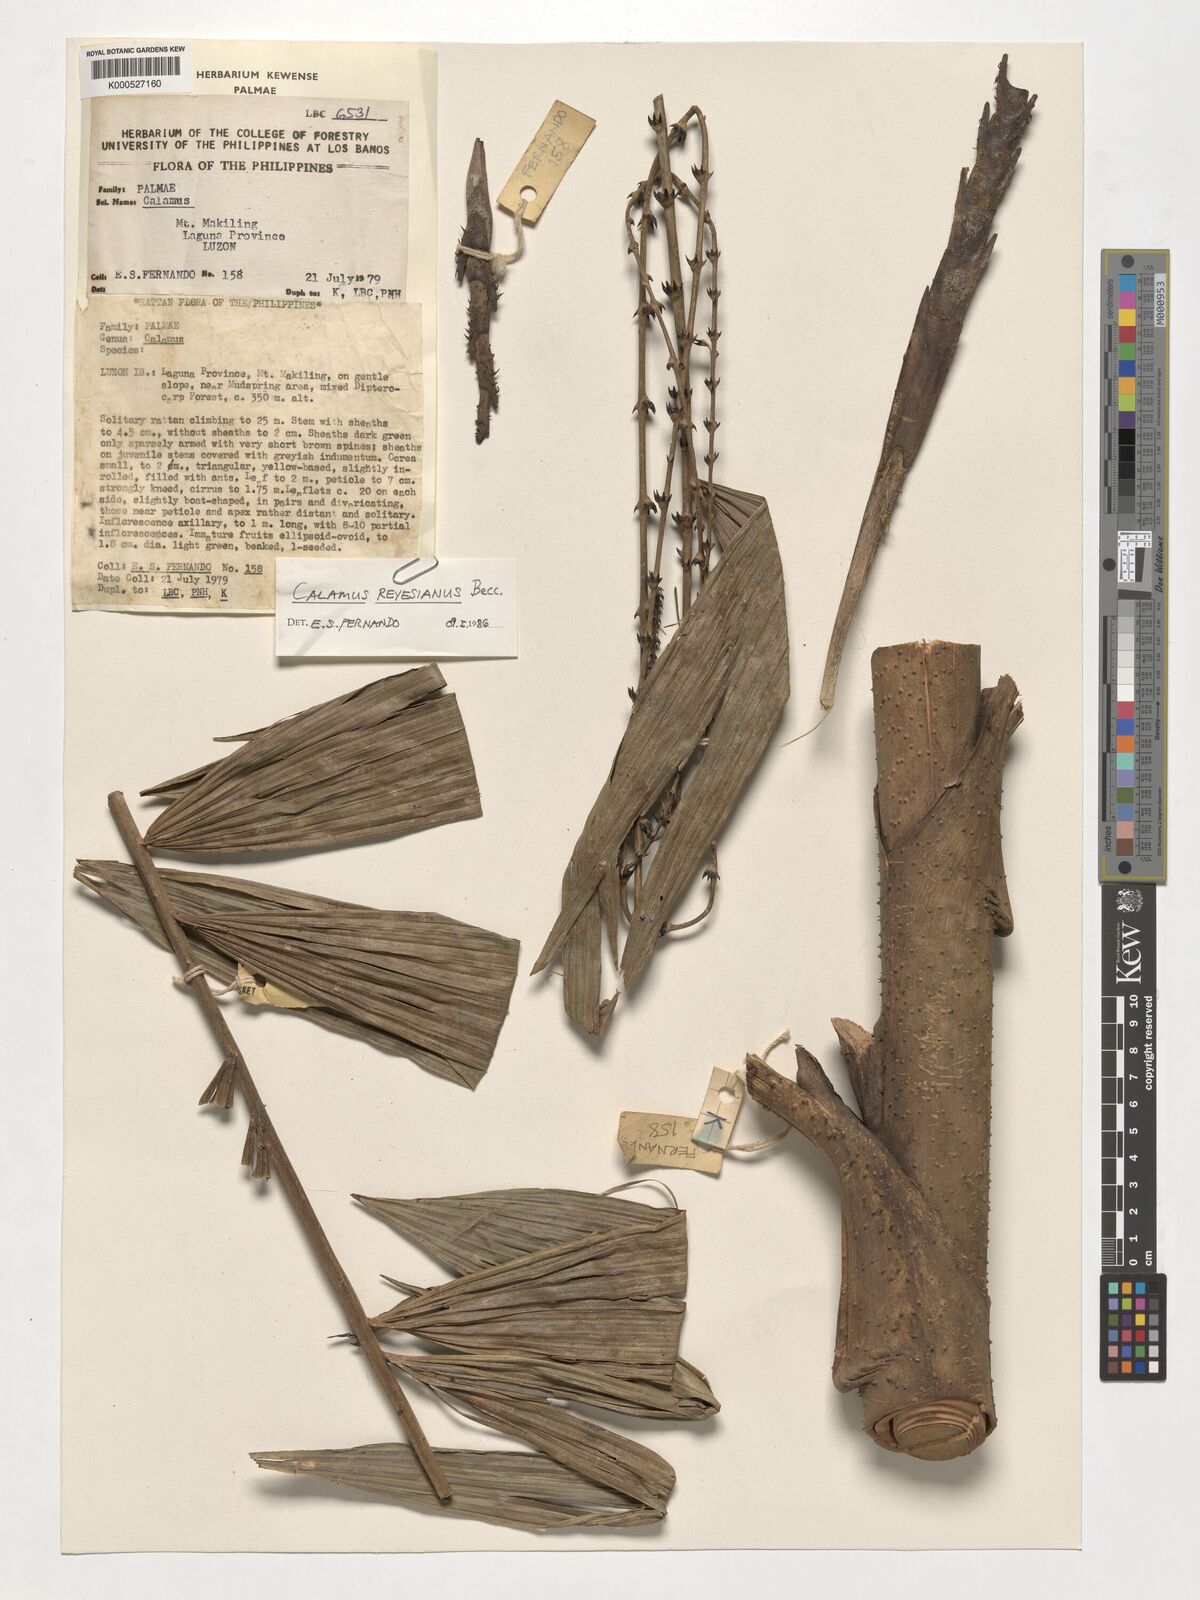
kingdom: Plantae
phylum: Tracheophyta
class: Liliopsida
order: Arecales
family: Arecaceae
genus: Calamus
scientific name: Calamus moseleyanus
